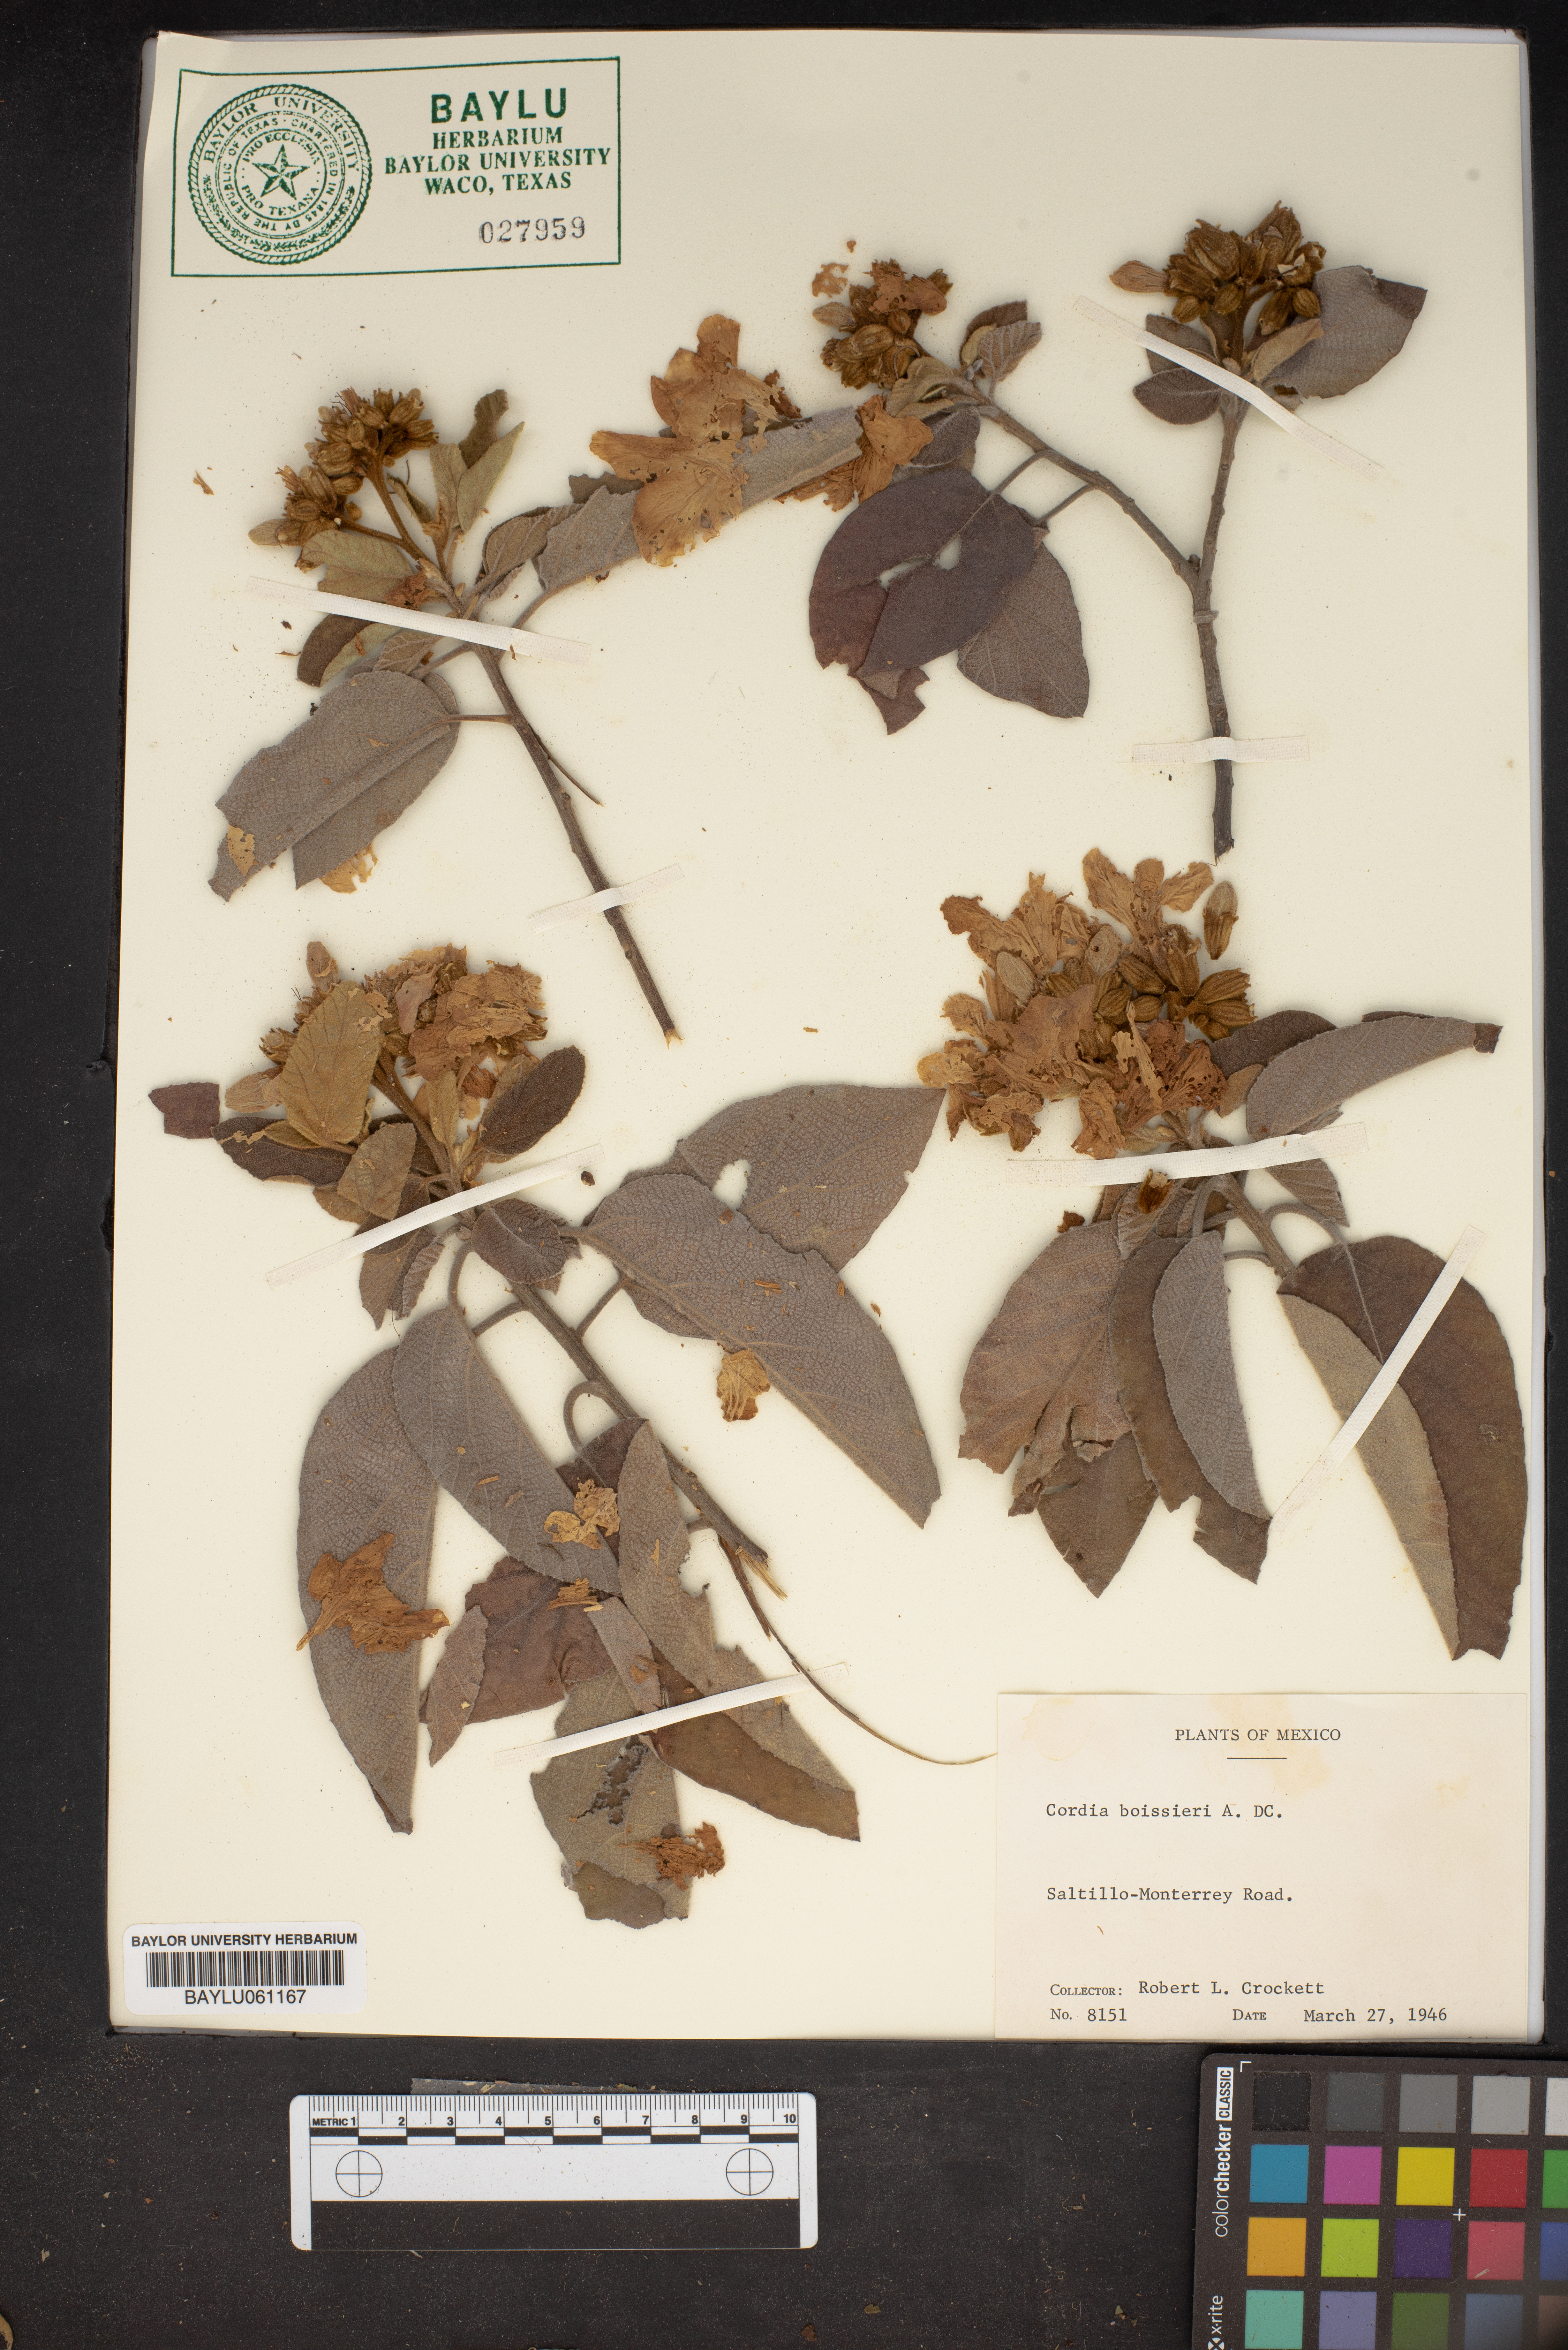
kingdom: Plantae
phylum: Tracheophyta
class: Magnoliopsida
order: Boraginales
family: Cordiaceae
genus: Cordia
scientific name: Cordia boissieri
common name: Mexican-olive
